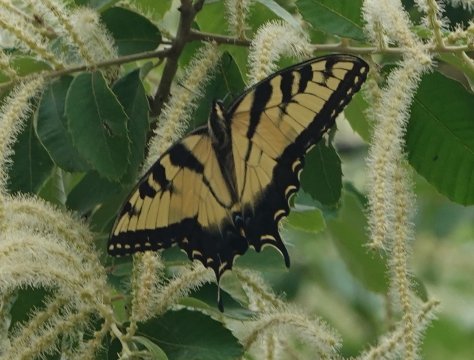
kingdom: Animalia
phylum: Arthropoda
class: Insecta
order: Lepidoptera
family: Papilionidae
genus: Pterourus
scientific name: Pterourus glaucus
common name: Eastern Tiger Swallowtail
